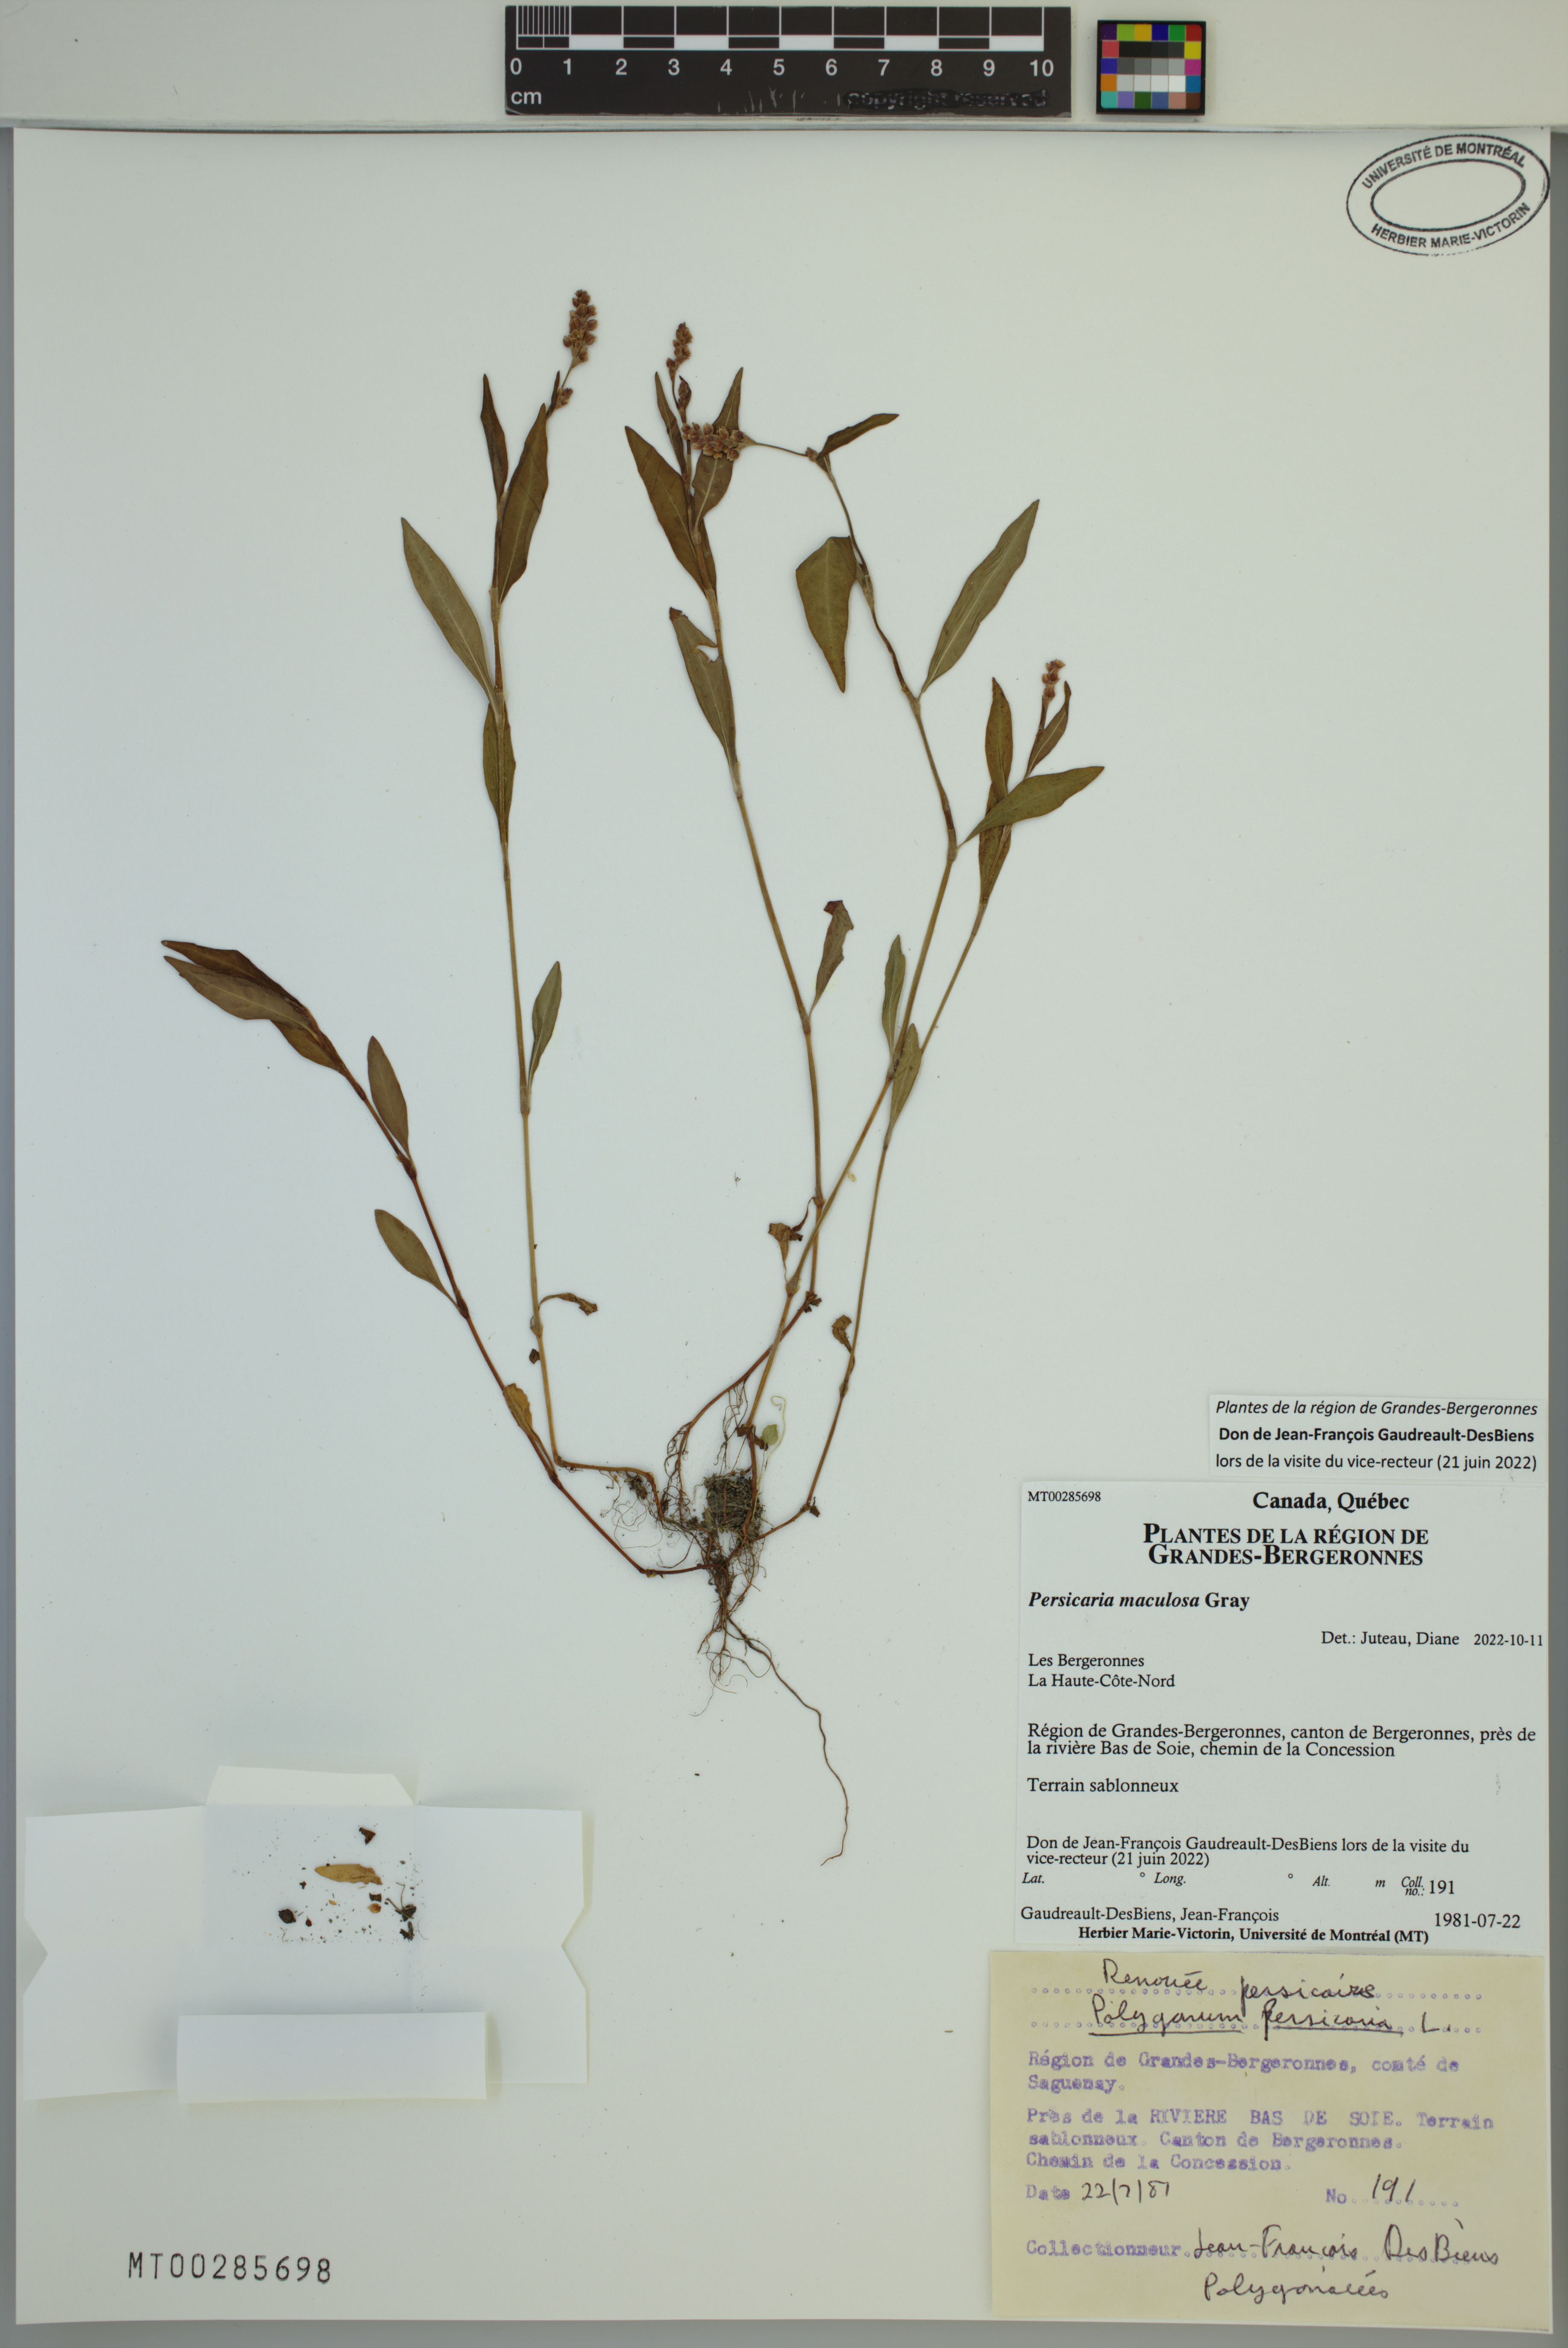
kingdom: Plantae
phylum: Tracheophyta
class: Magnoliopsida
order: Caryophyllales
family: Polygonaceae
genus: Persicaria
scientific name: Persicaria maculosa
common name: Redshank
